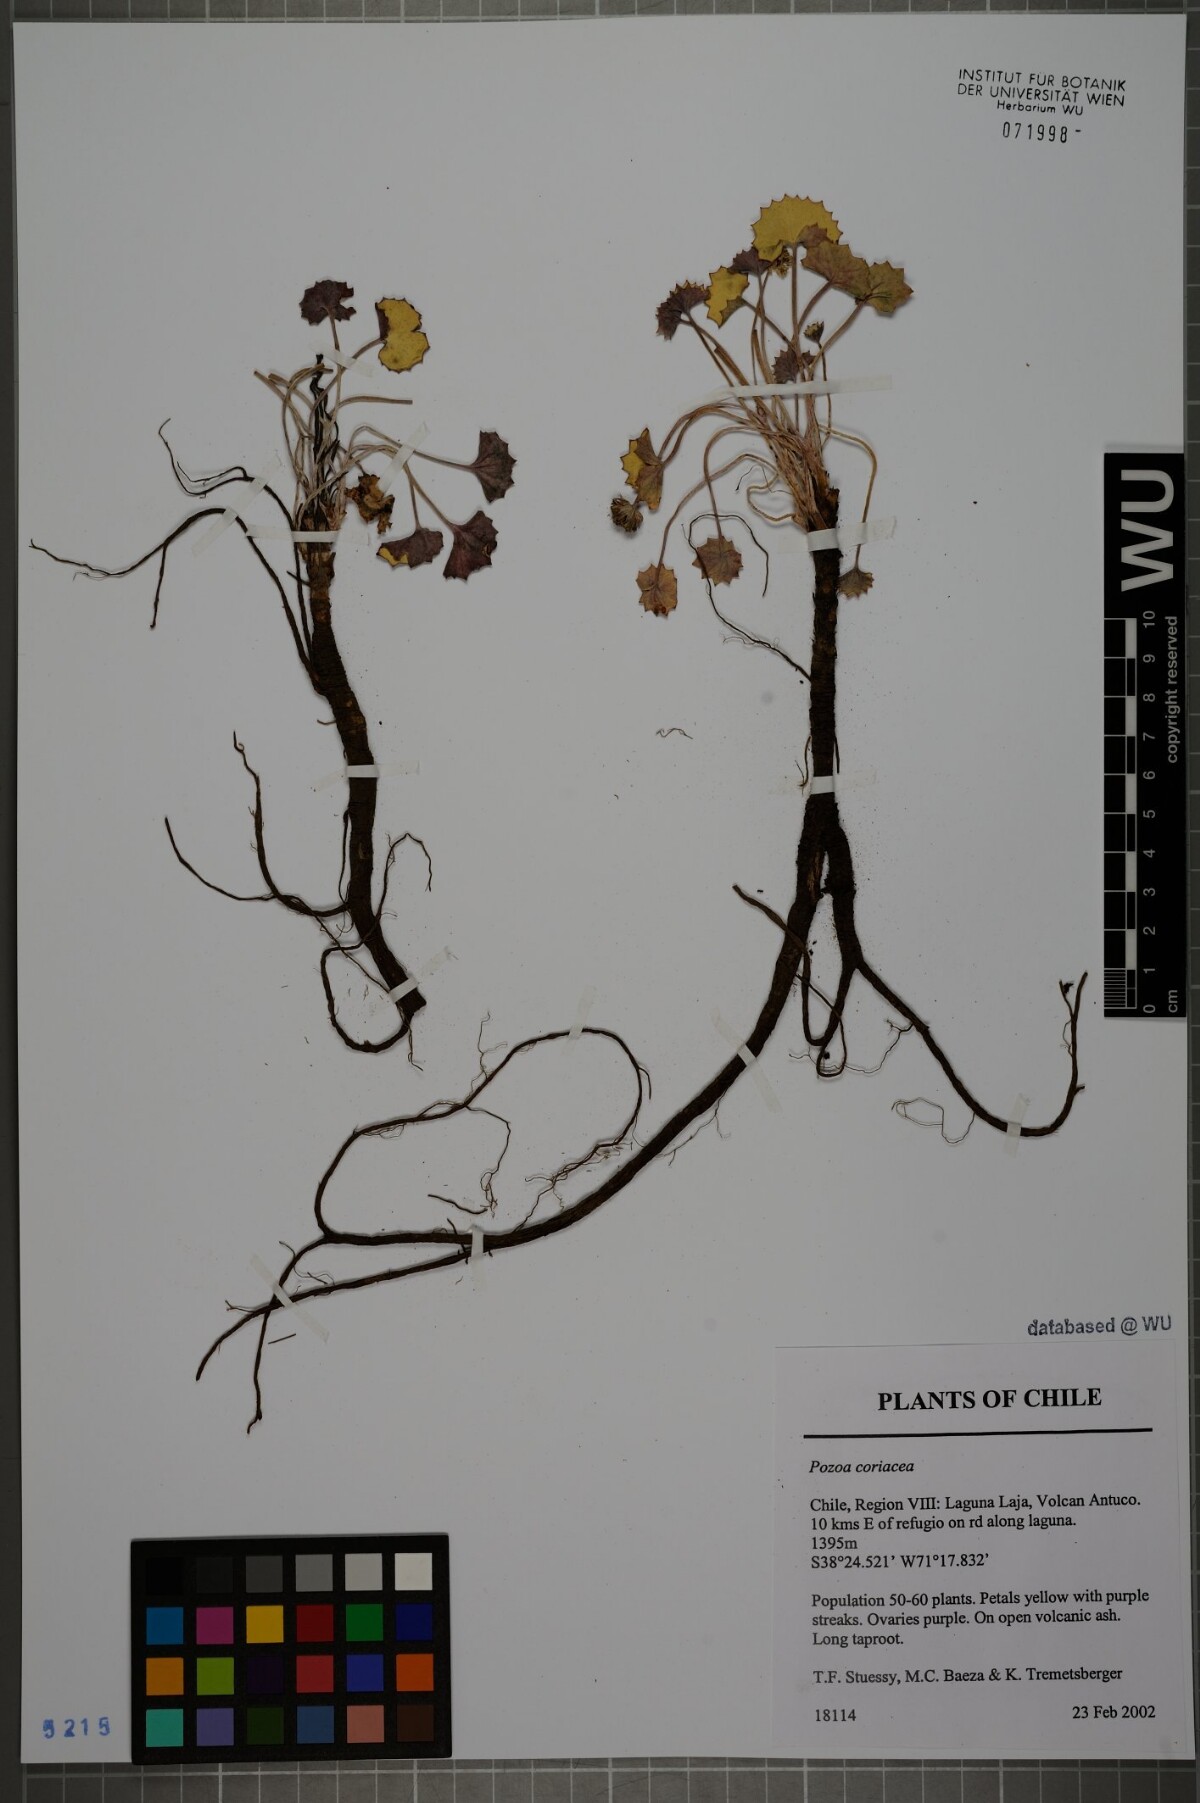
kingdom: Plantae
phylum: Tracheophyta
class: Magnoliopsida
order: Apiales
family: Apiaceae
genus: Pozoa
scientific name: Pozoa coriacea
